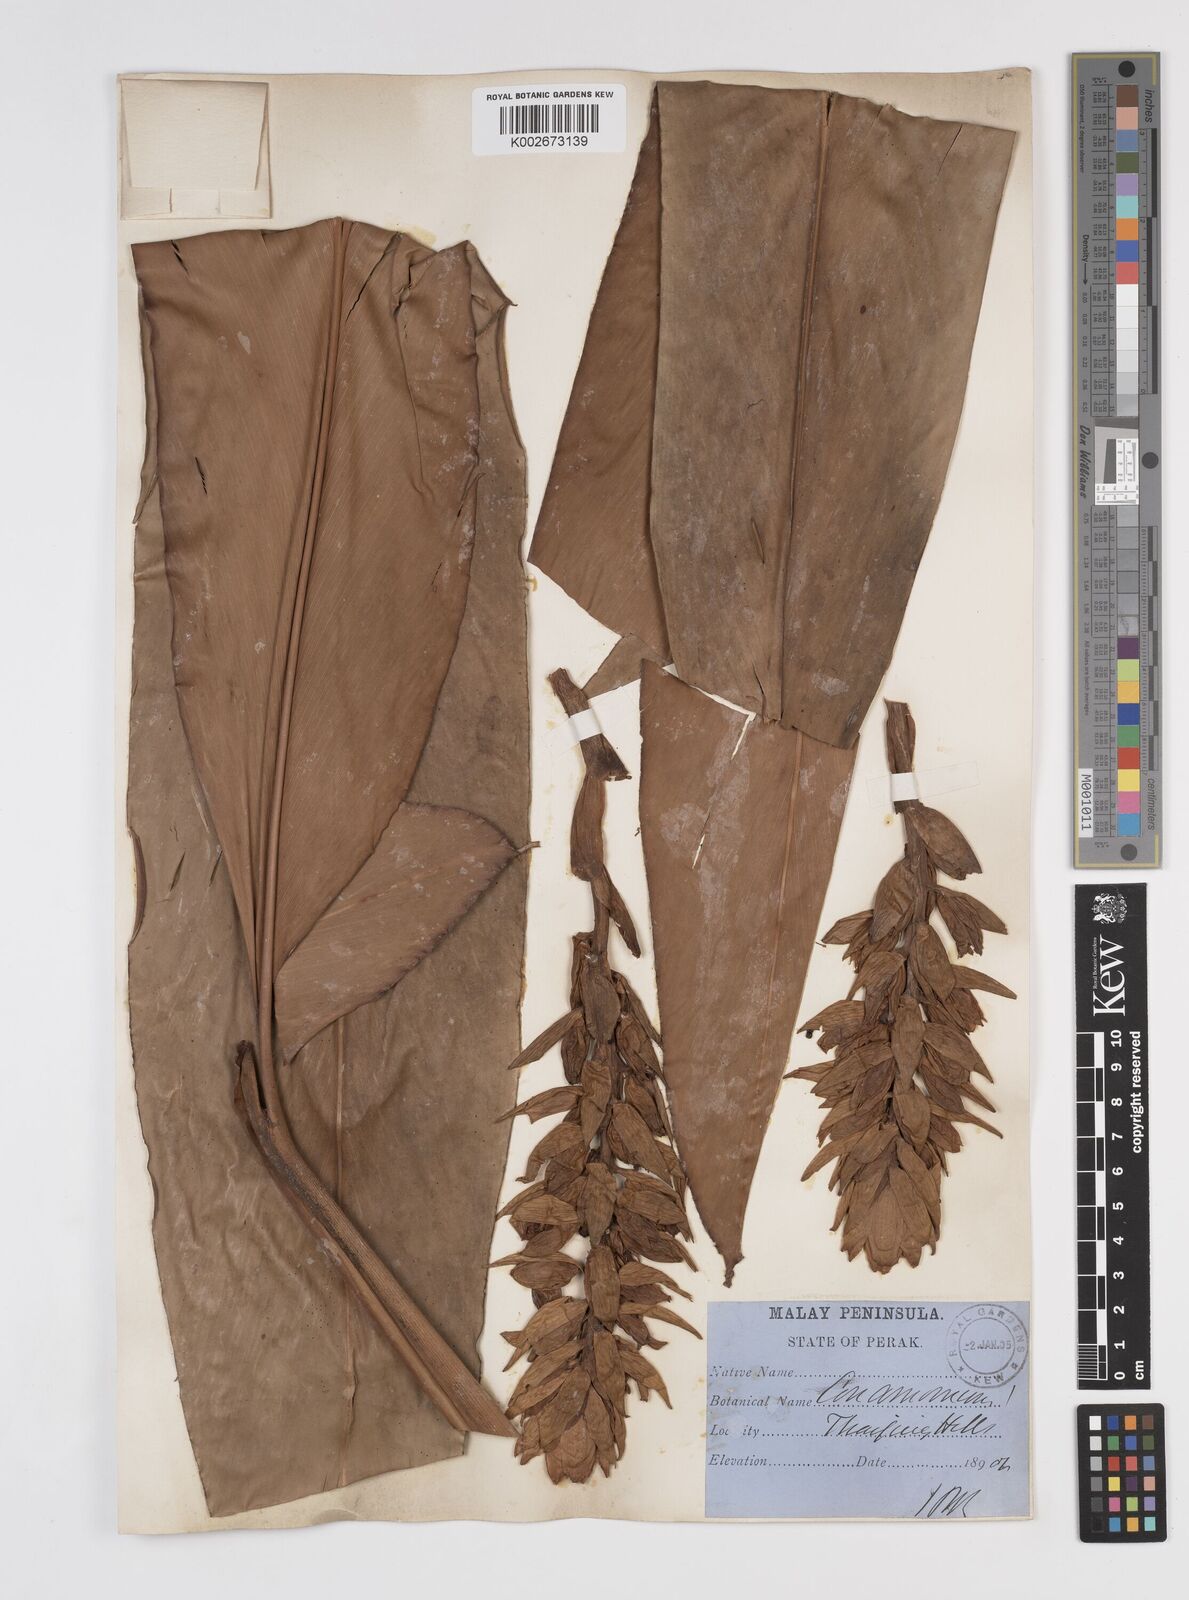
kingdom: Plantae
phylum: Tracheophyta
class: Liliopsida
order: Zingiberales
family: Zingiberaceae
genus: Conamomum
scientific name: Conamomum citrinum
